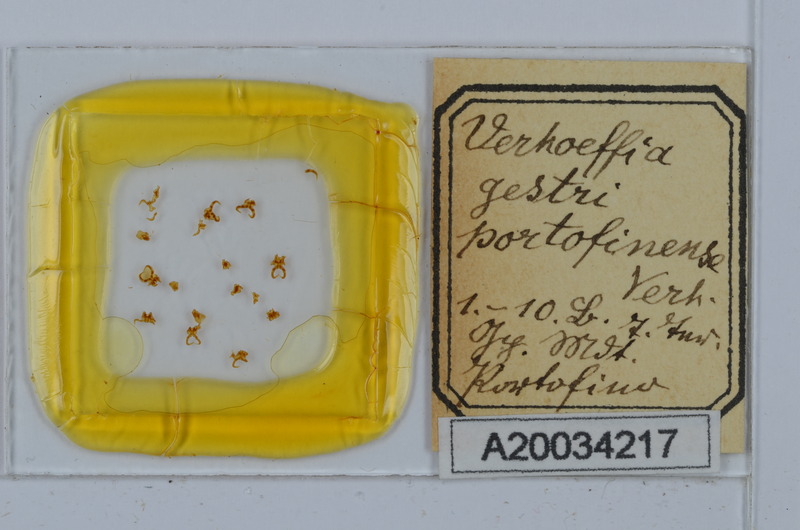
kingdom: Animalia
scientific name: Animalia
